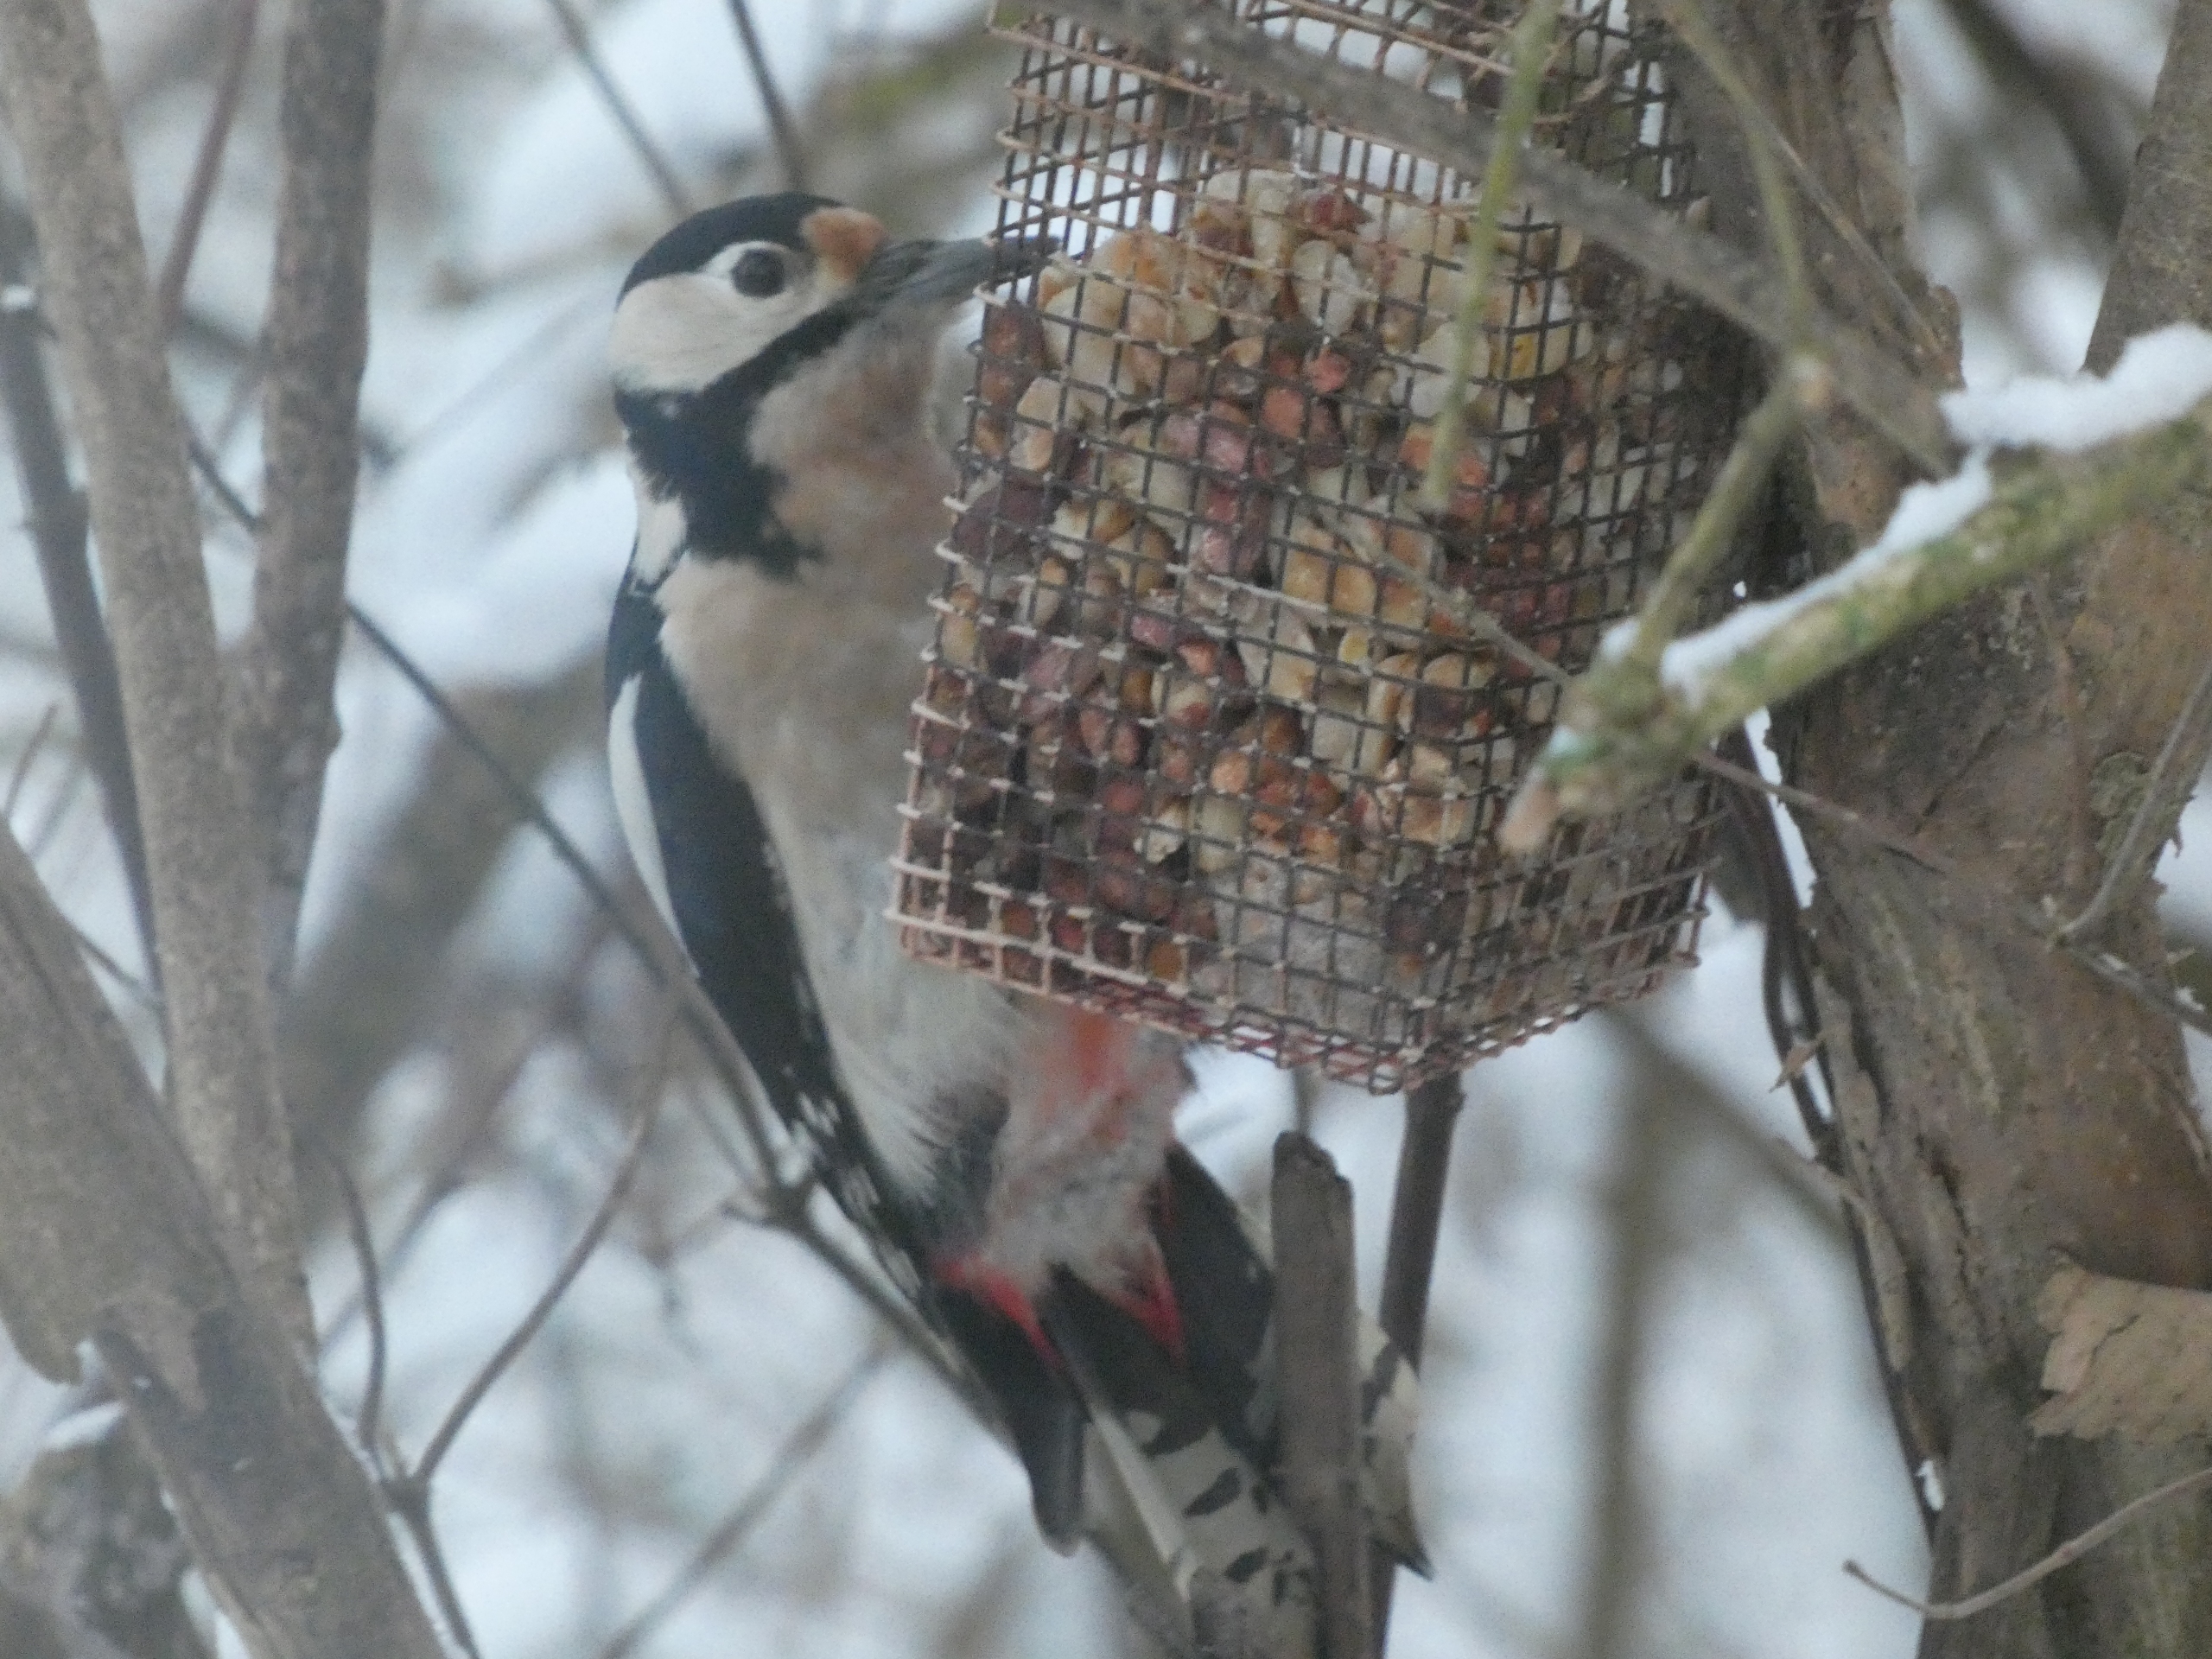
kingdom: Animalia
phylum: Chordata
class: Aves
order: Piciformes
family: Picidae
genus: Dendrocopos
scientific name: Dendrocopos major
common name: Stor flagspætte
